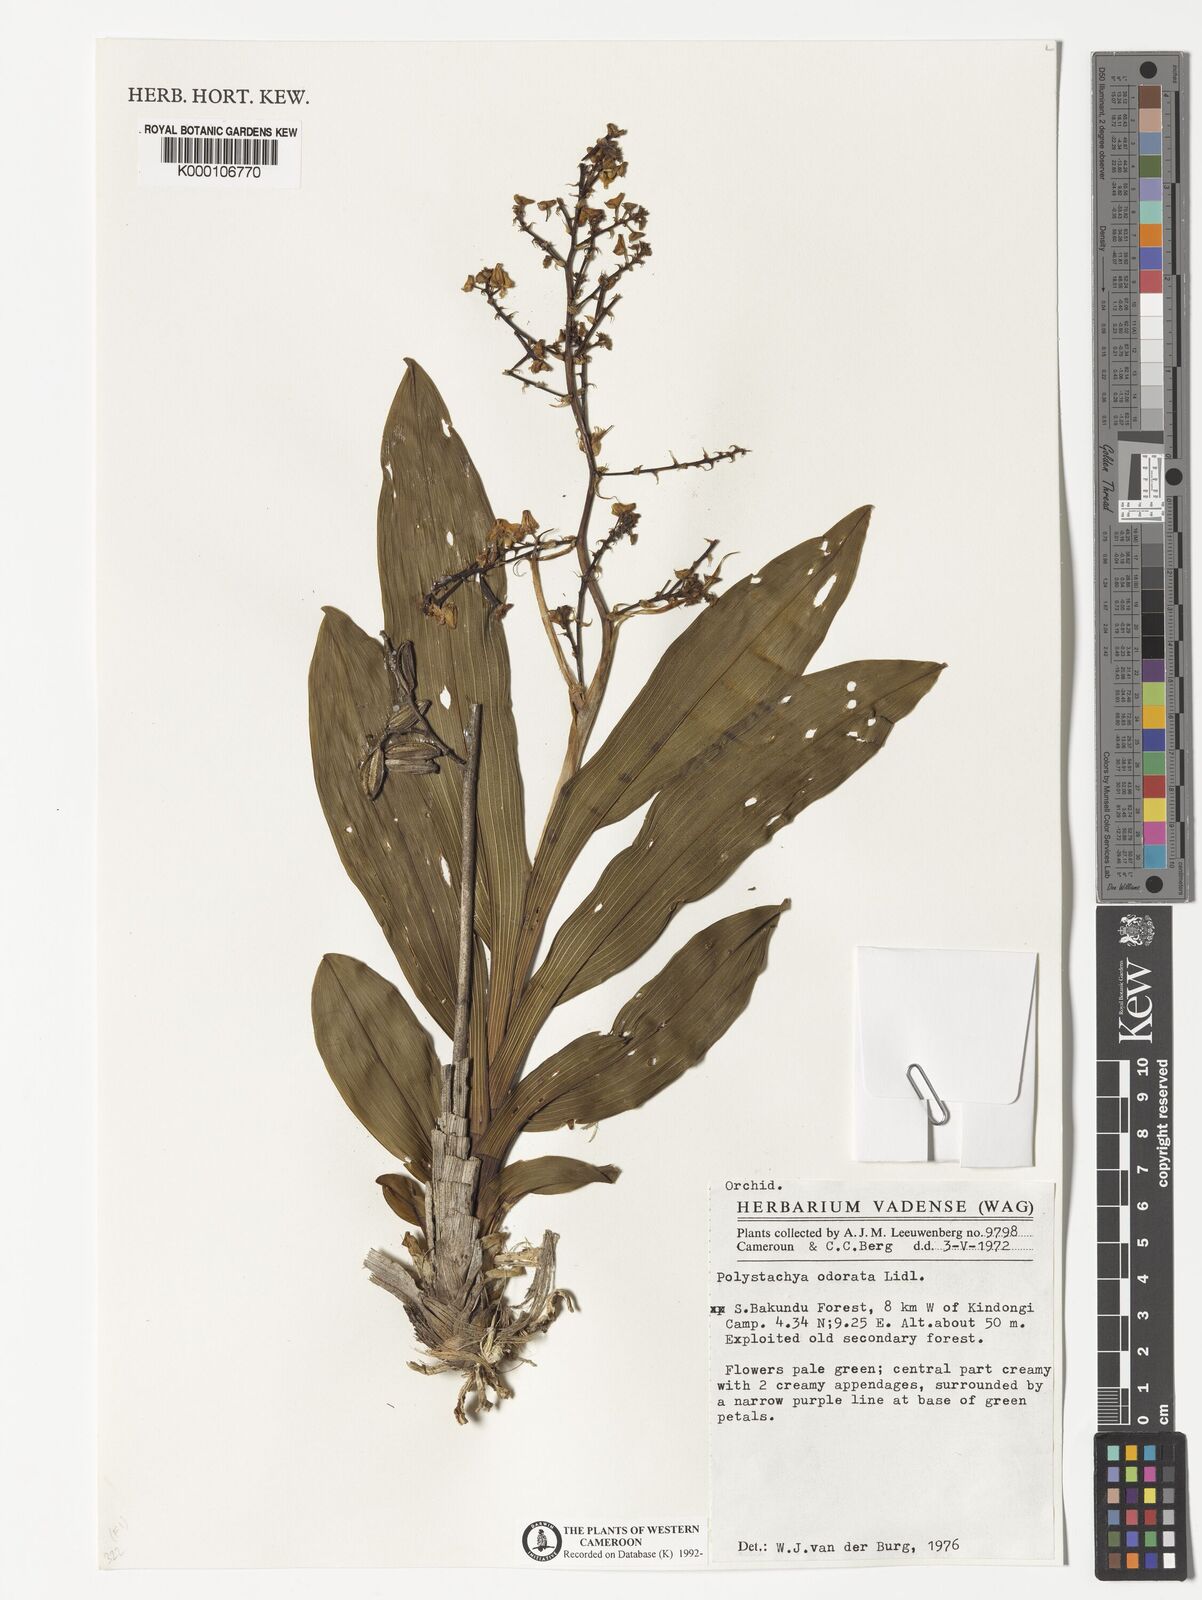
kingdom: Plantae
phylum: Tracheophyta
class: Liliopsida
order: Asparagales
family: Orchidaceae
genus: Polystachya
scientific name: Polystachya odorata
